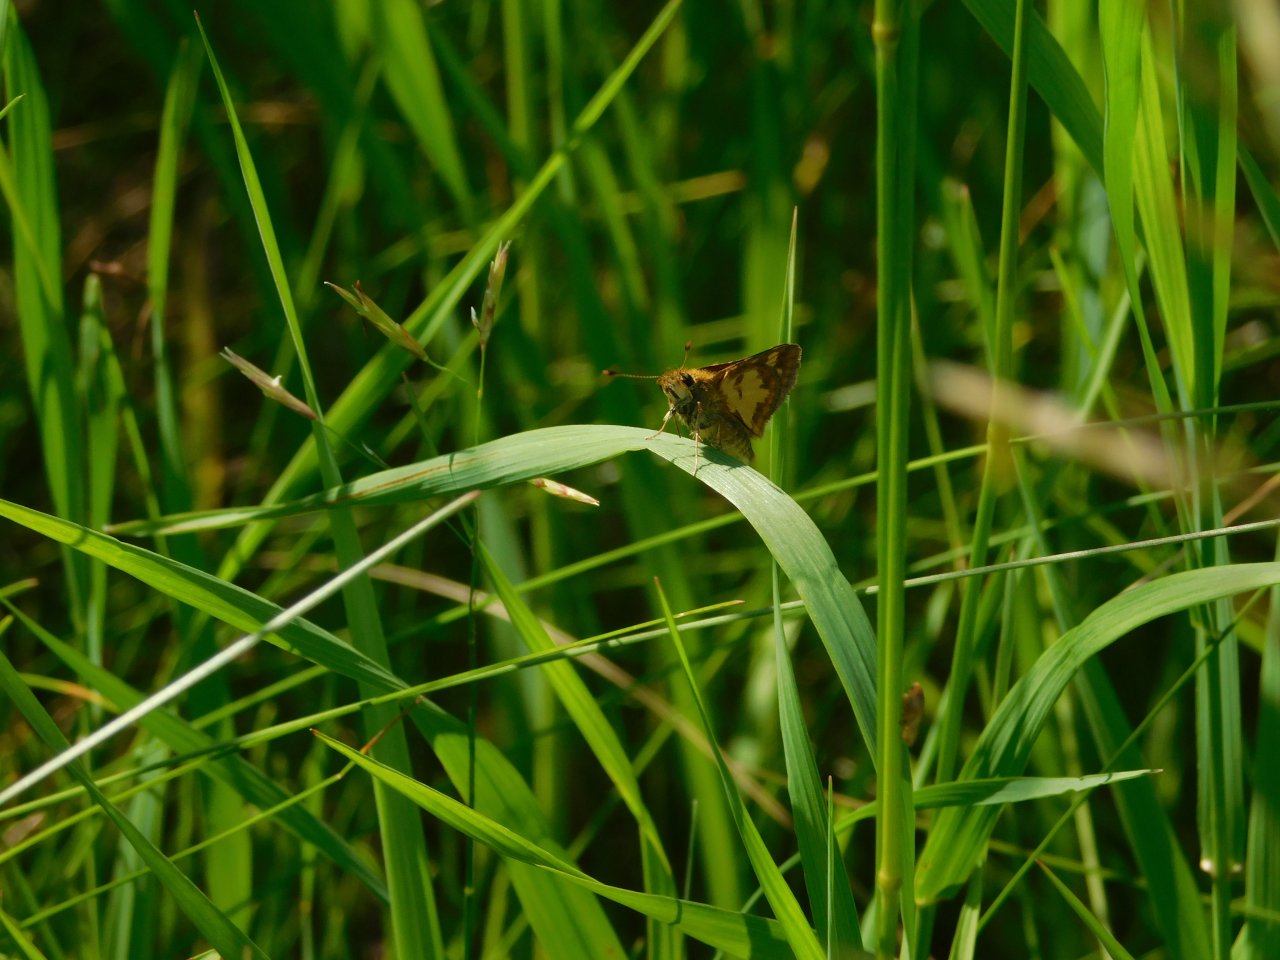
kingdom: Animalia
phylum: Arthropoda
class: Insecta
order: Lepidoptera
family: Hesperiidae
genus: Polites
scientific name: Polites coras
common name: Peck's Skipper
